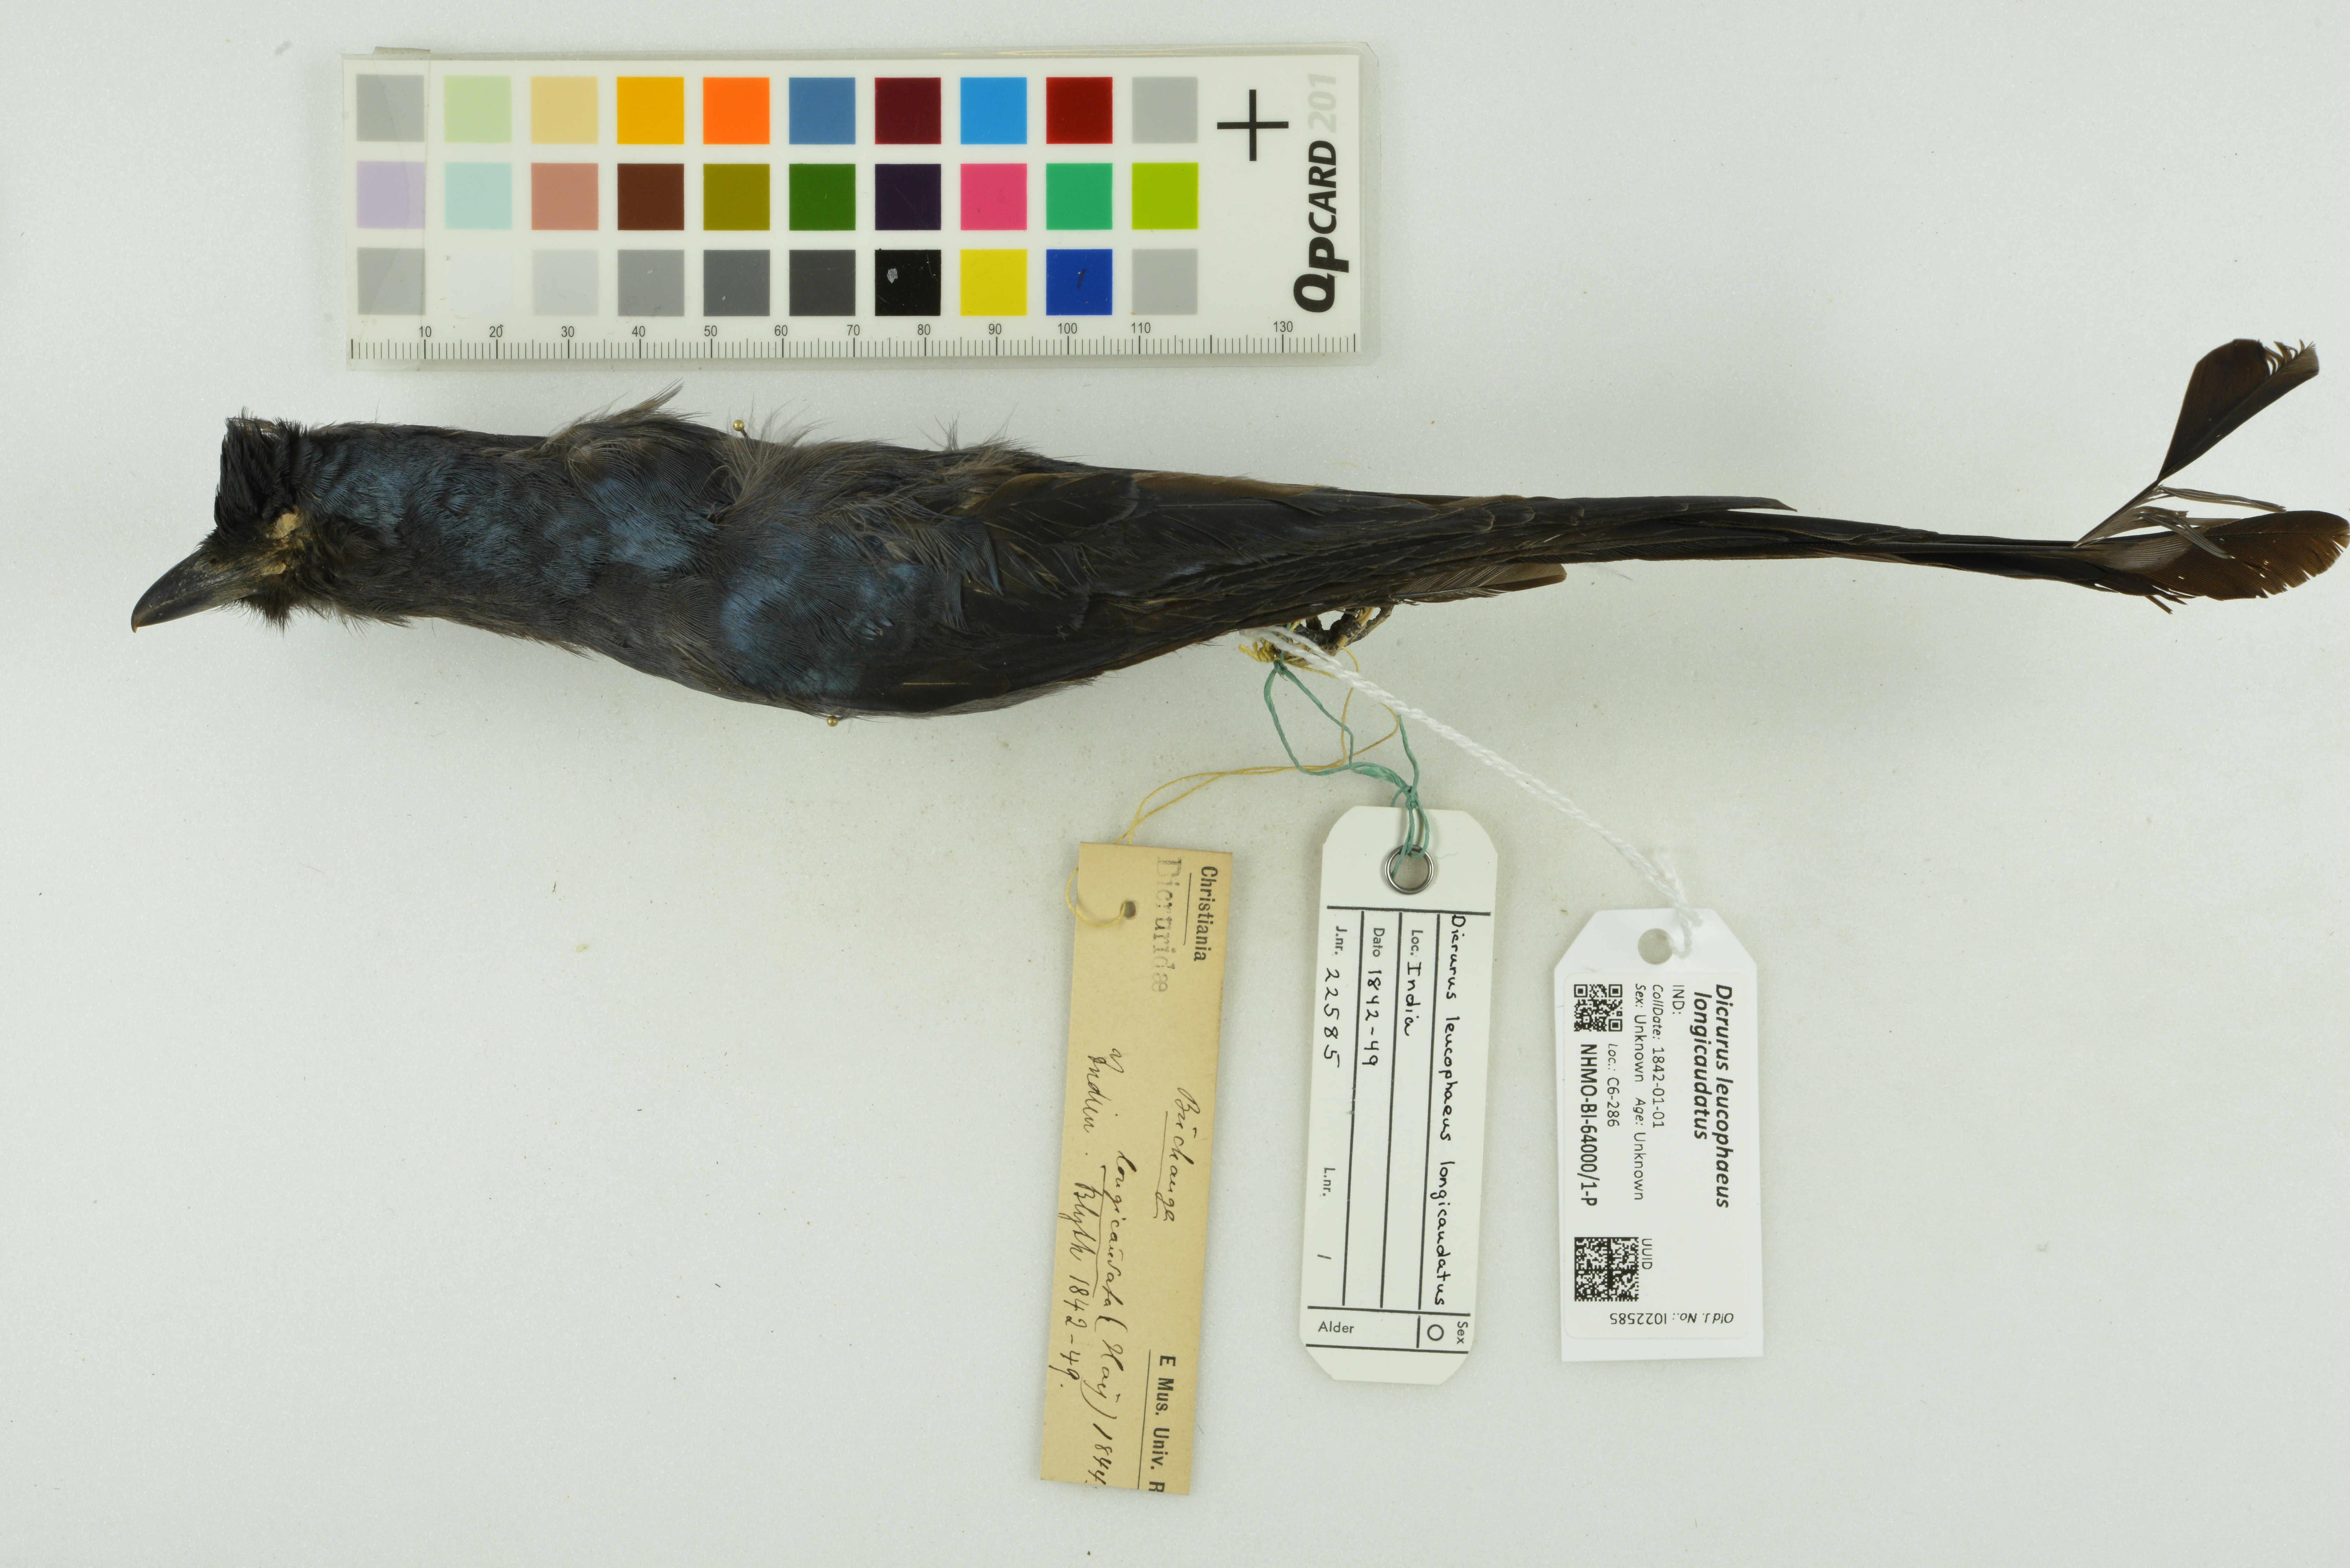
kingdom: Animalia
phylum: Chordata
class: Aves
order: Passeriformes
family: Dicruridae
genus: Dicrurus
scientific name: Dicrurus leucophaeus
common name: Ashy drongo
